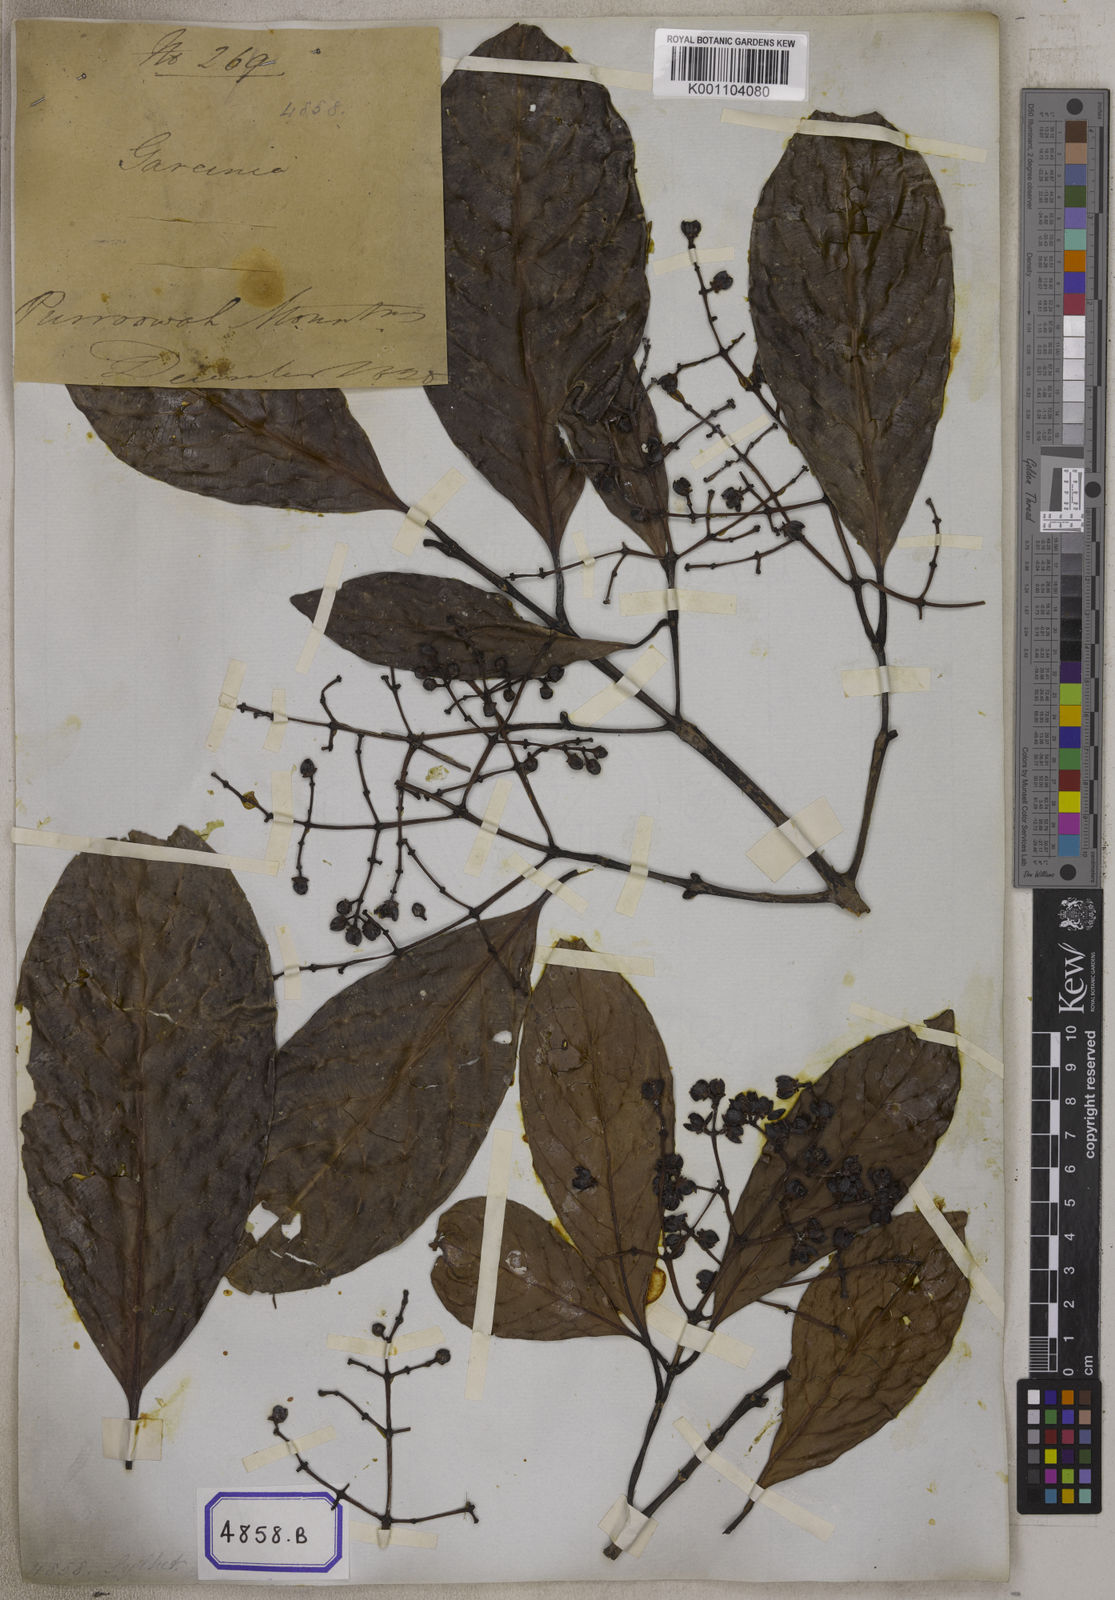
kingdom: Plantae
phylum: Tracheophyta
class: Magnoliopsida
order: Malpighiales
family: Clusiaceae
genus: Garcinia
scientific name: Garcinia
